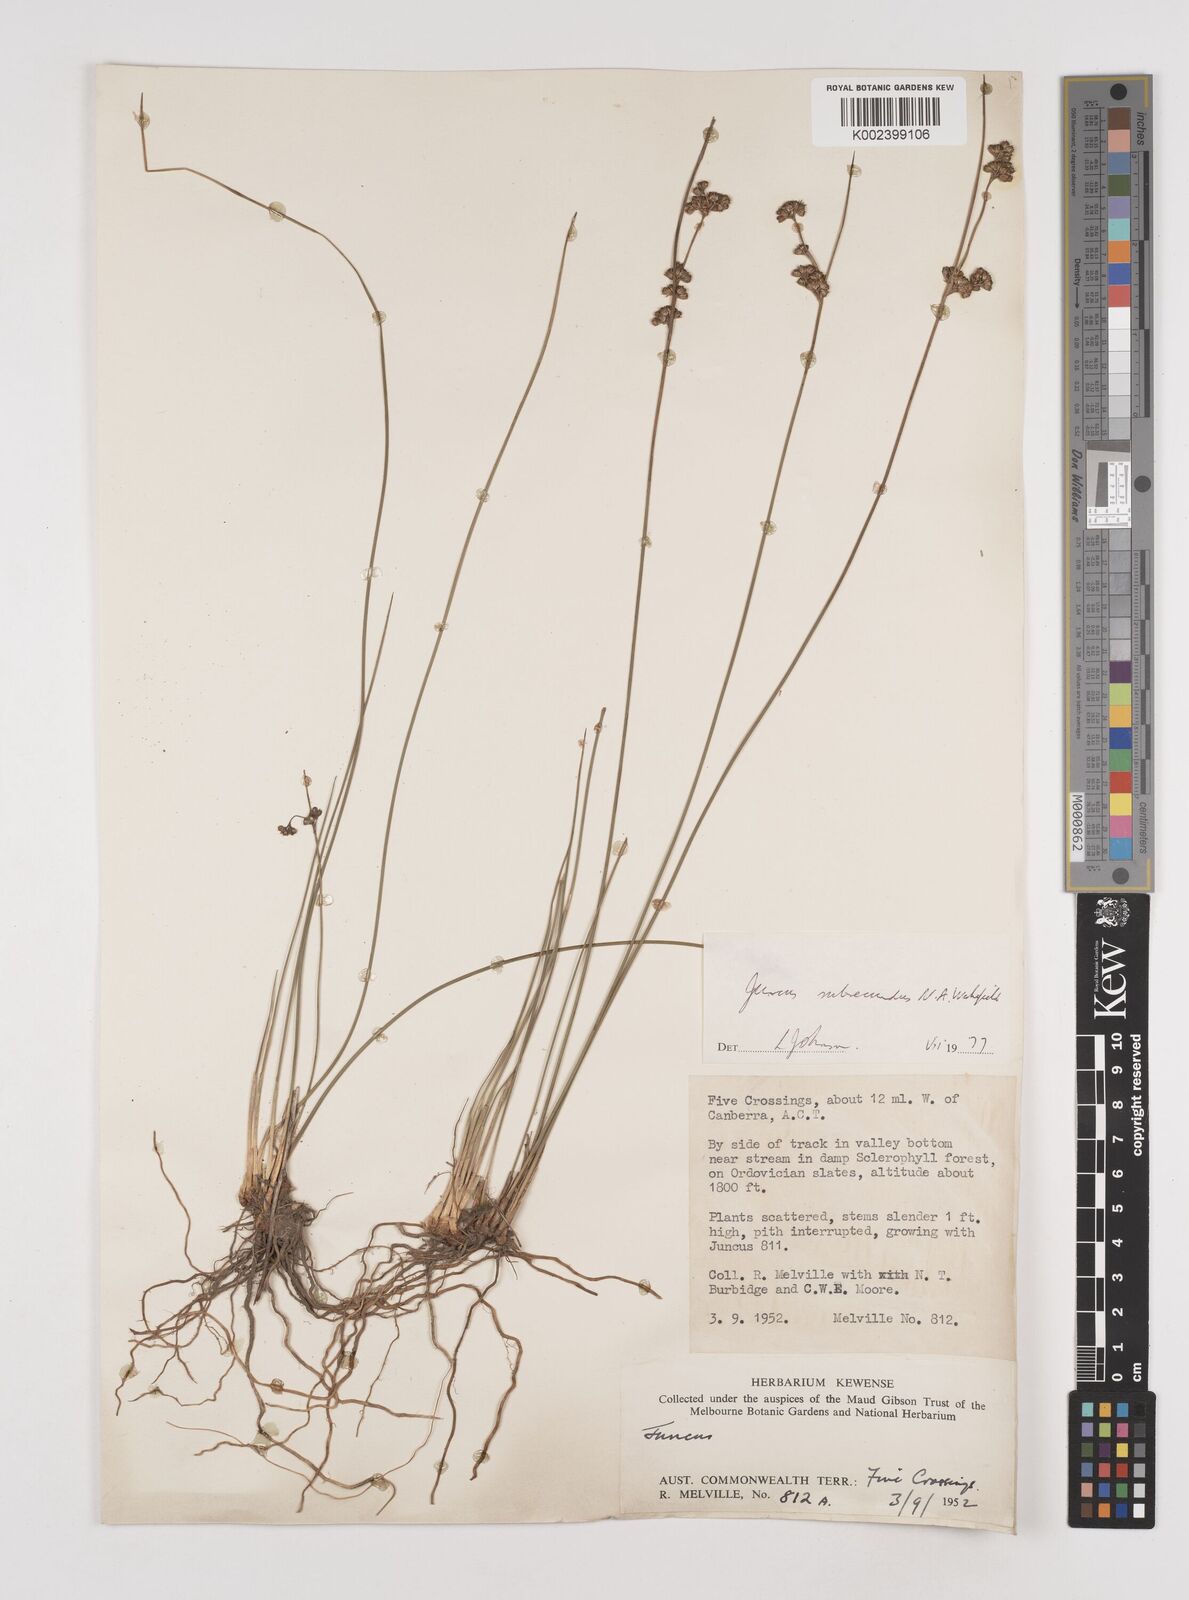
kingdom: Plantae
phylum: Tracheophyta
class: Liliopsida
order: Poales
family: Juncaceae
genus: Juncus
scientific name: Juncus subsecundus
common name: Fingered rush
